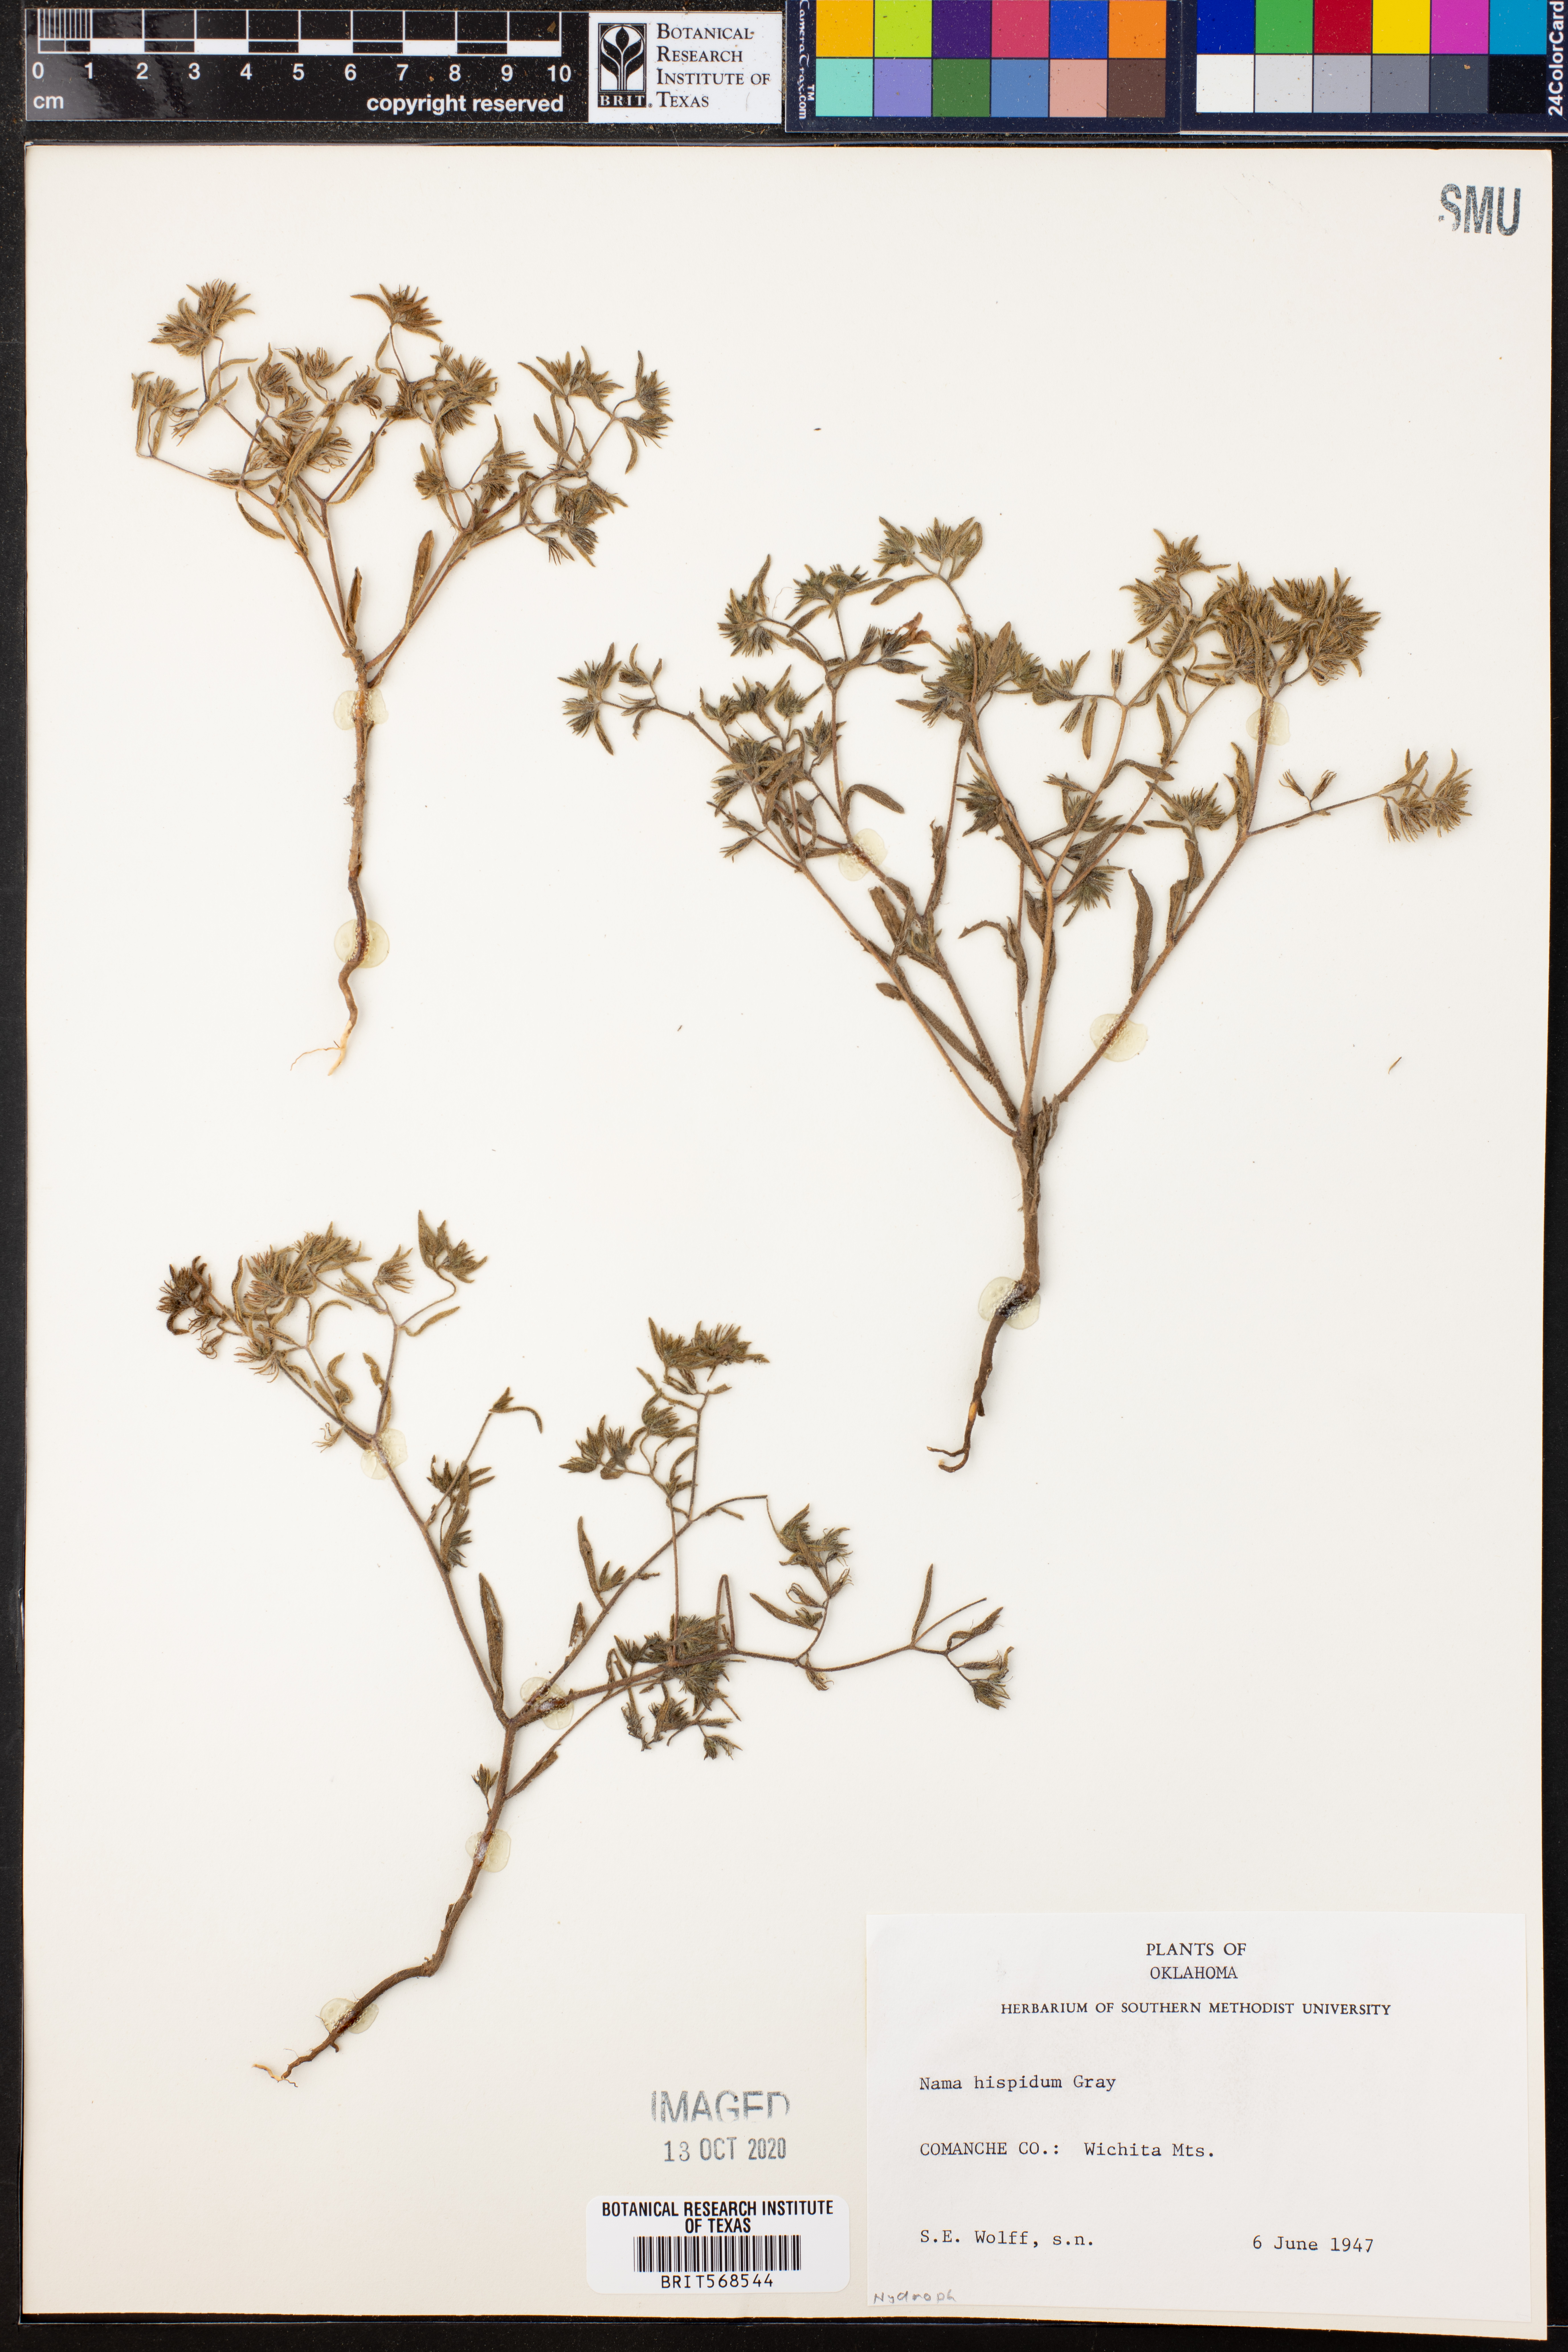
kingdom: Plantae
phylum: Tracheophyta
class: Magnoliopsida
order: Boraginales
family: Namaceae
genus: Nama
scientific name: Nama hispida
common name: Bristly nama
